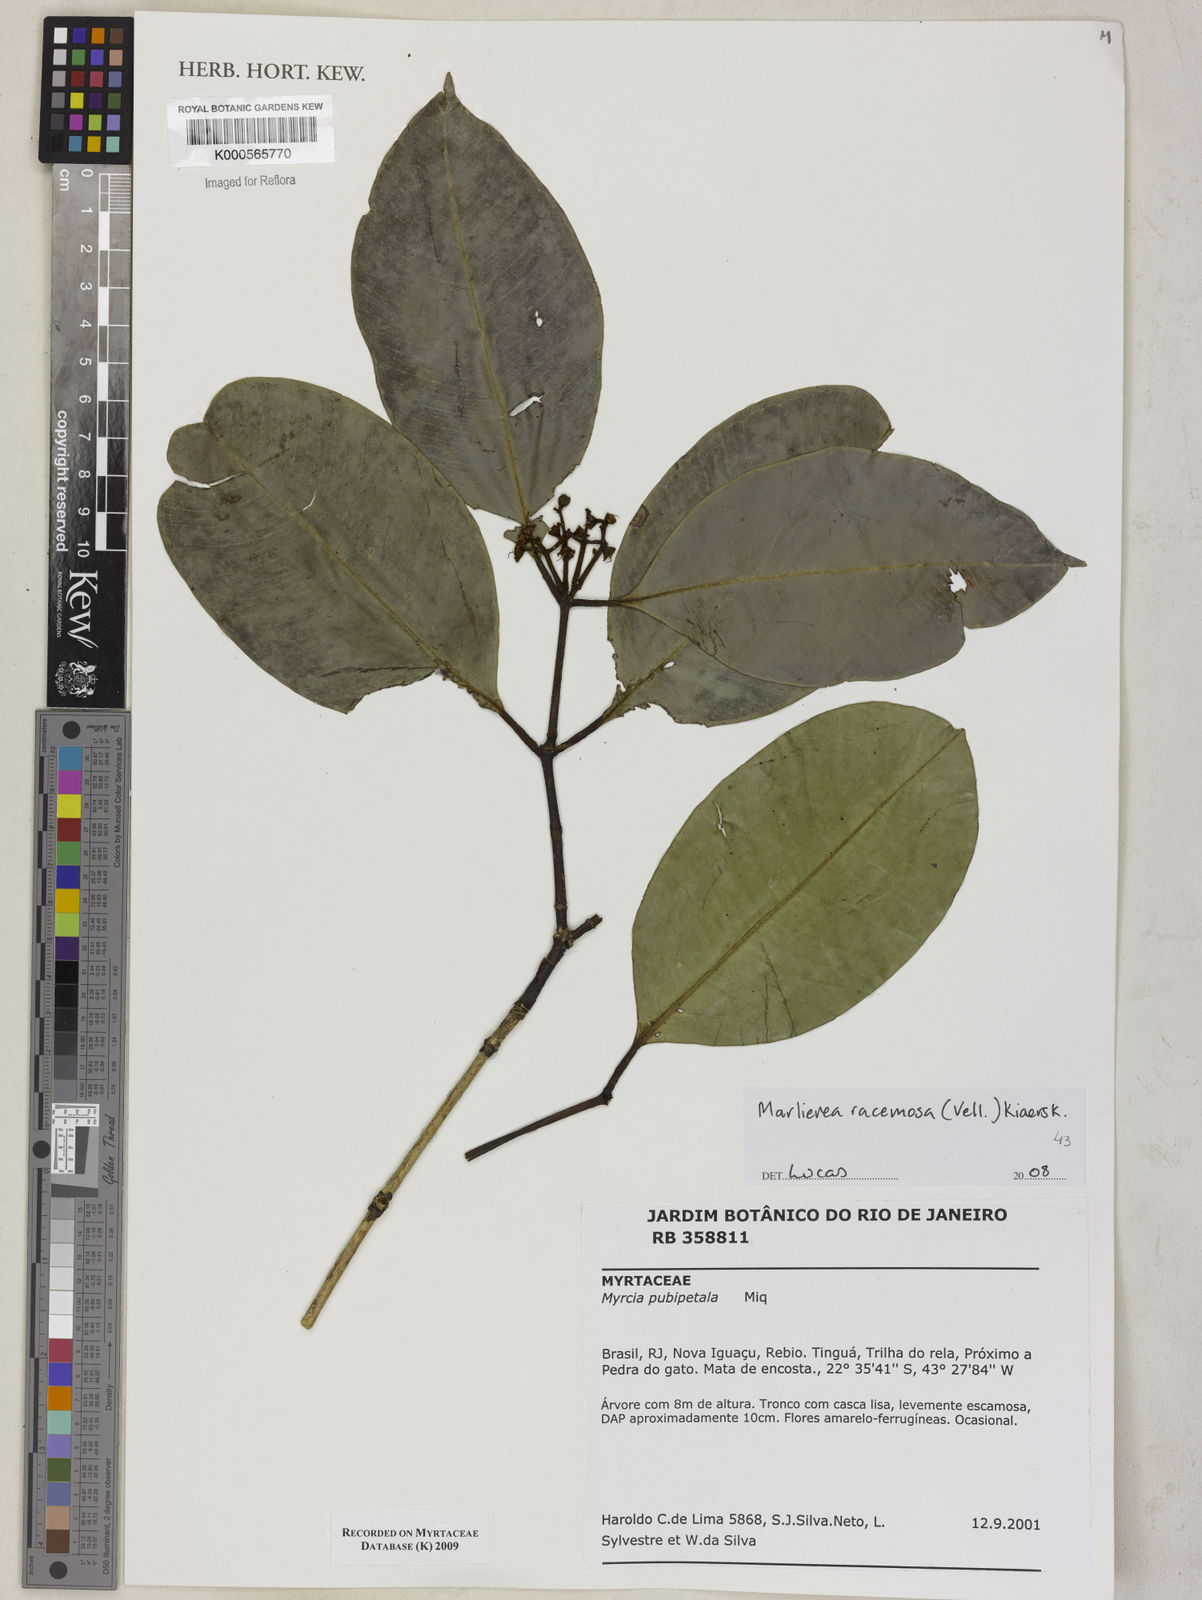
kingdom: Plantae
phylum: Tracheophyta
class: Magnoliopsida
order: Myrtales
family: Myrtaceae
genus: Myrcia
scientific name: Myrcia vellozoi
